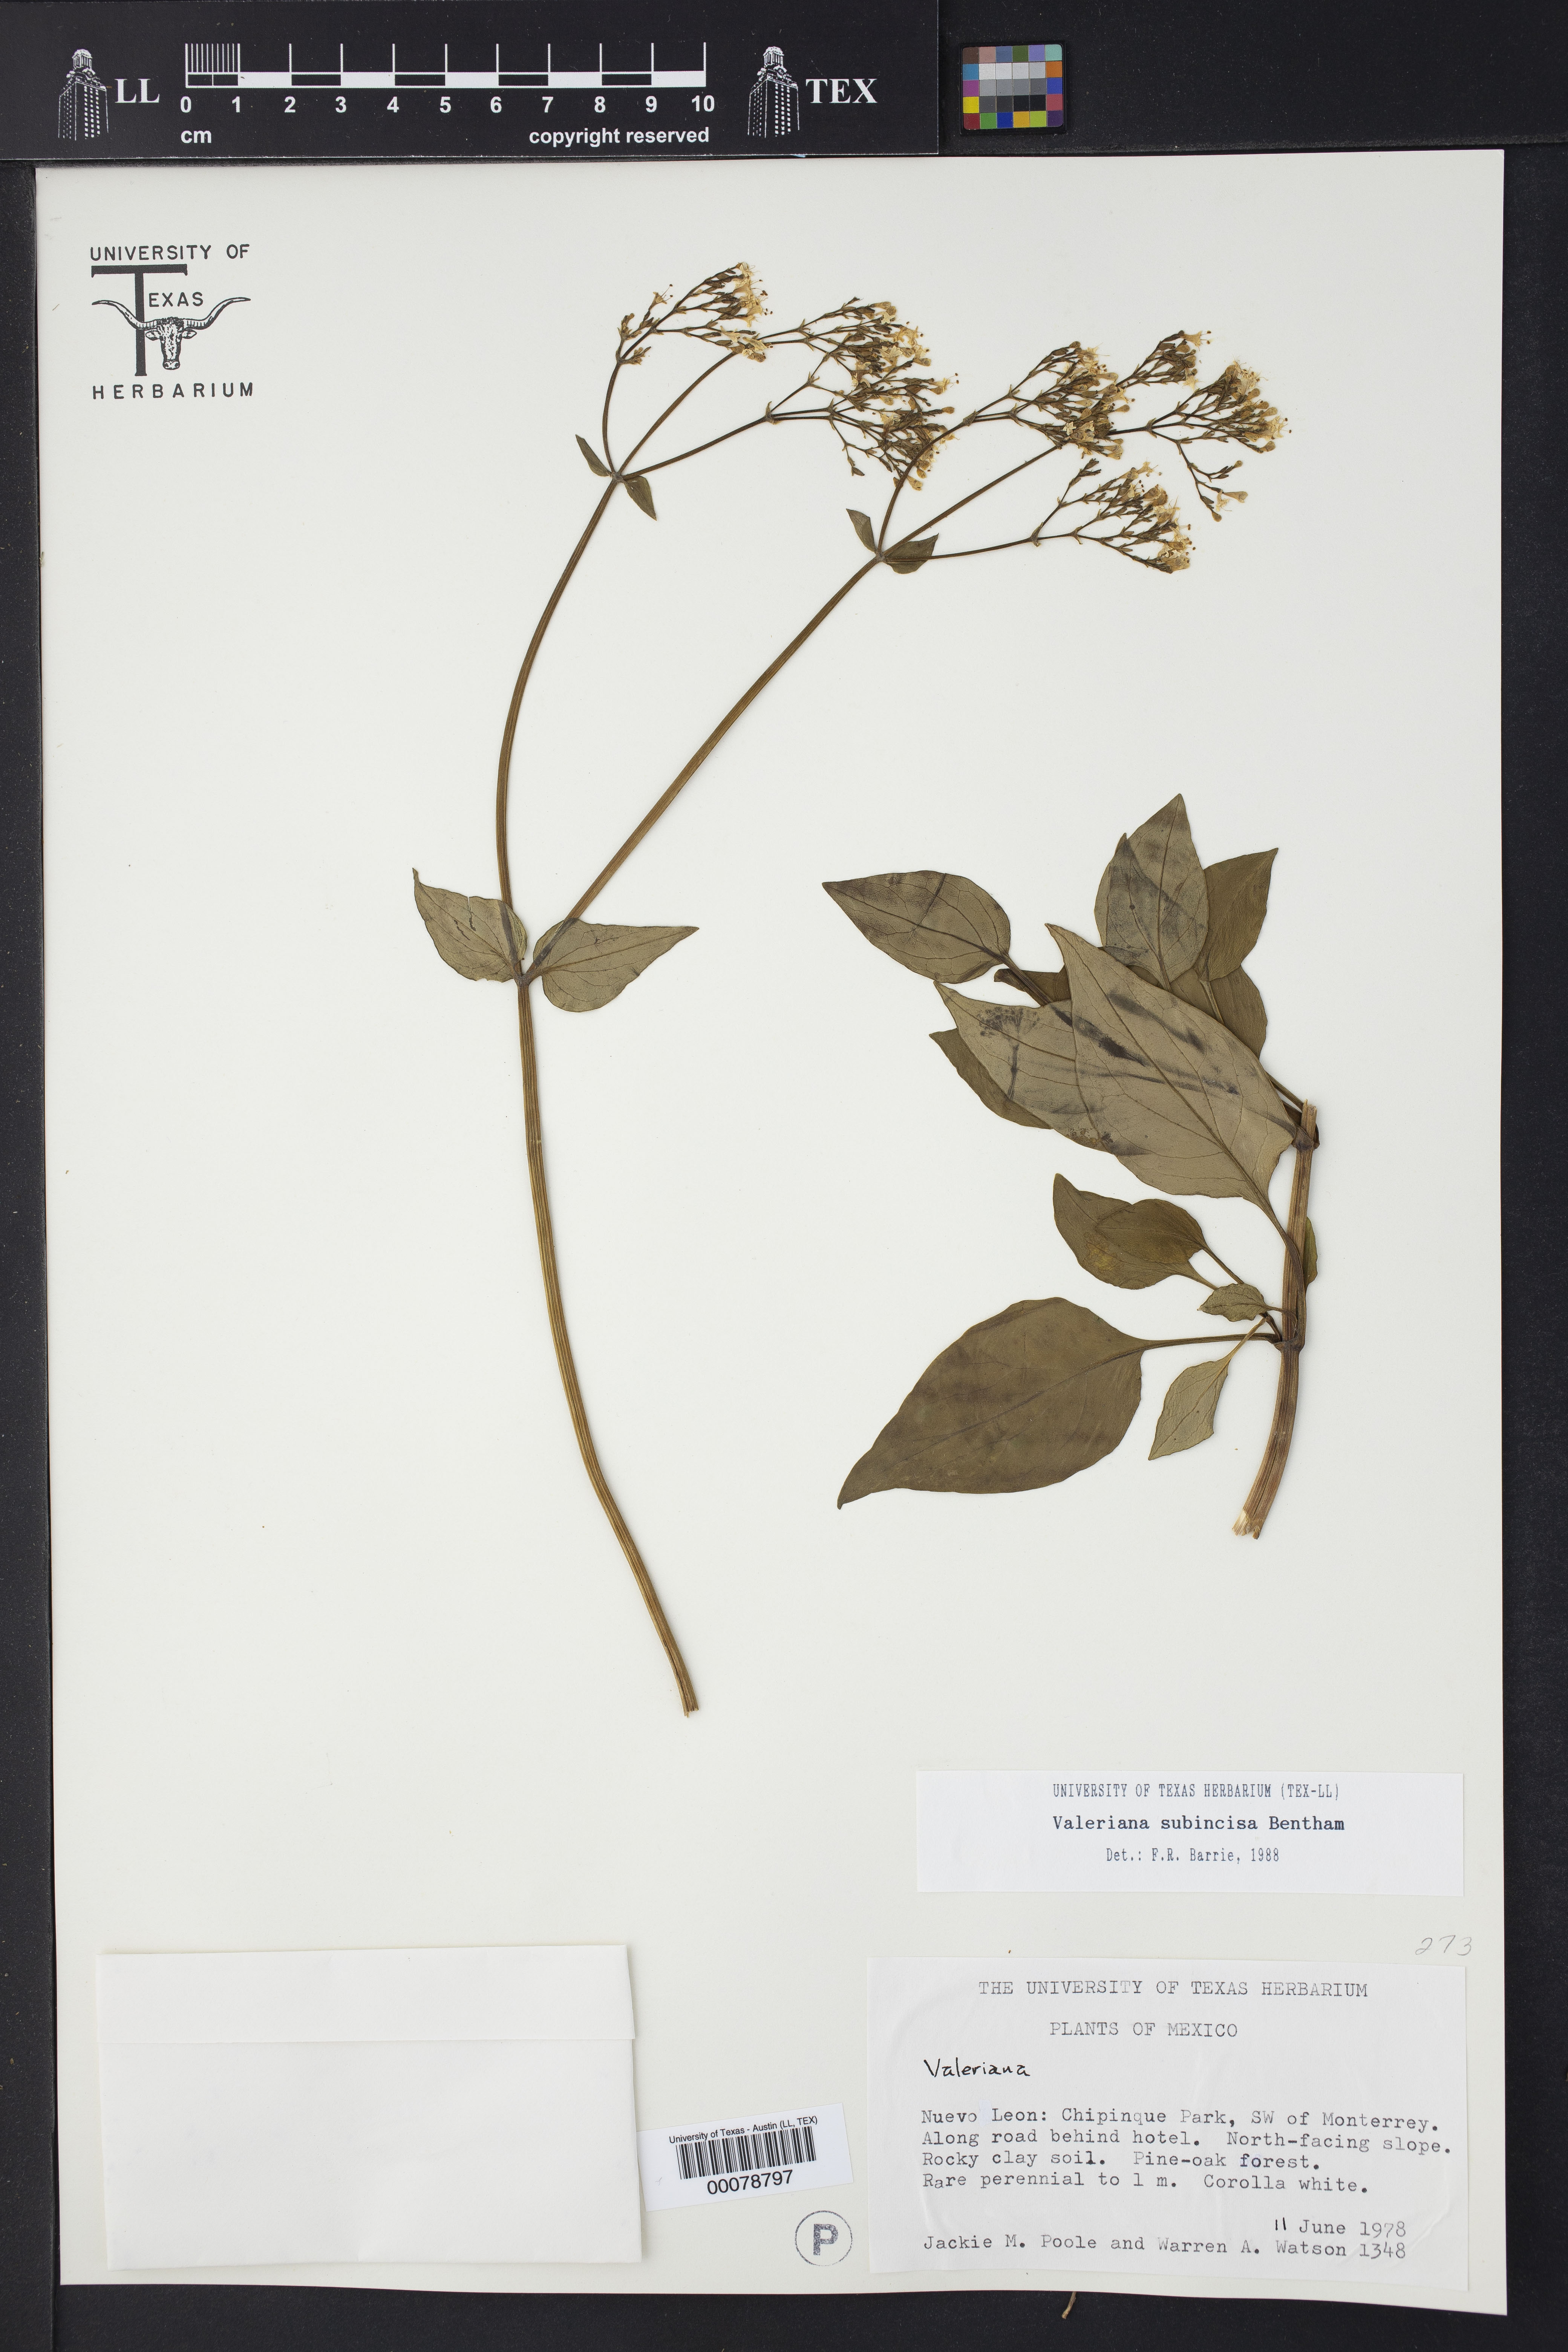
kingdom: Plantae
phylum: Tracheophyta
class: Magnoliopsida
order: Dipsacales
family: Caprifoliaceae
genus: Valeriana
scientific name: Valeriana subincisa
